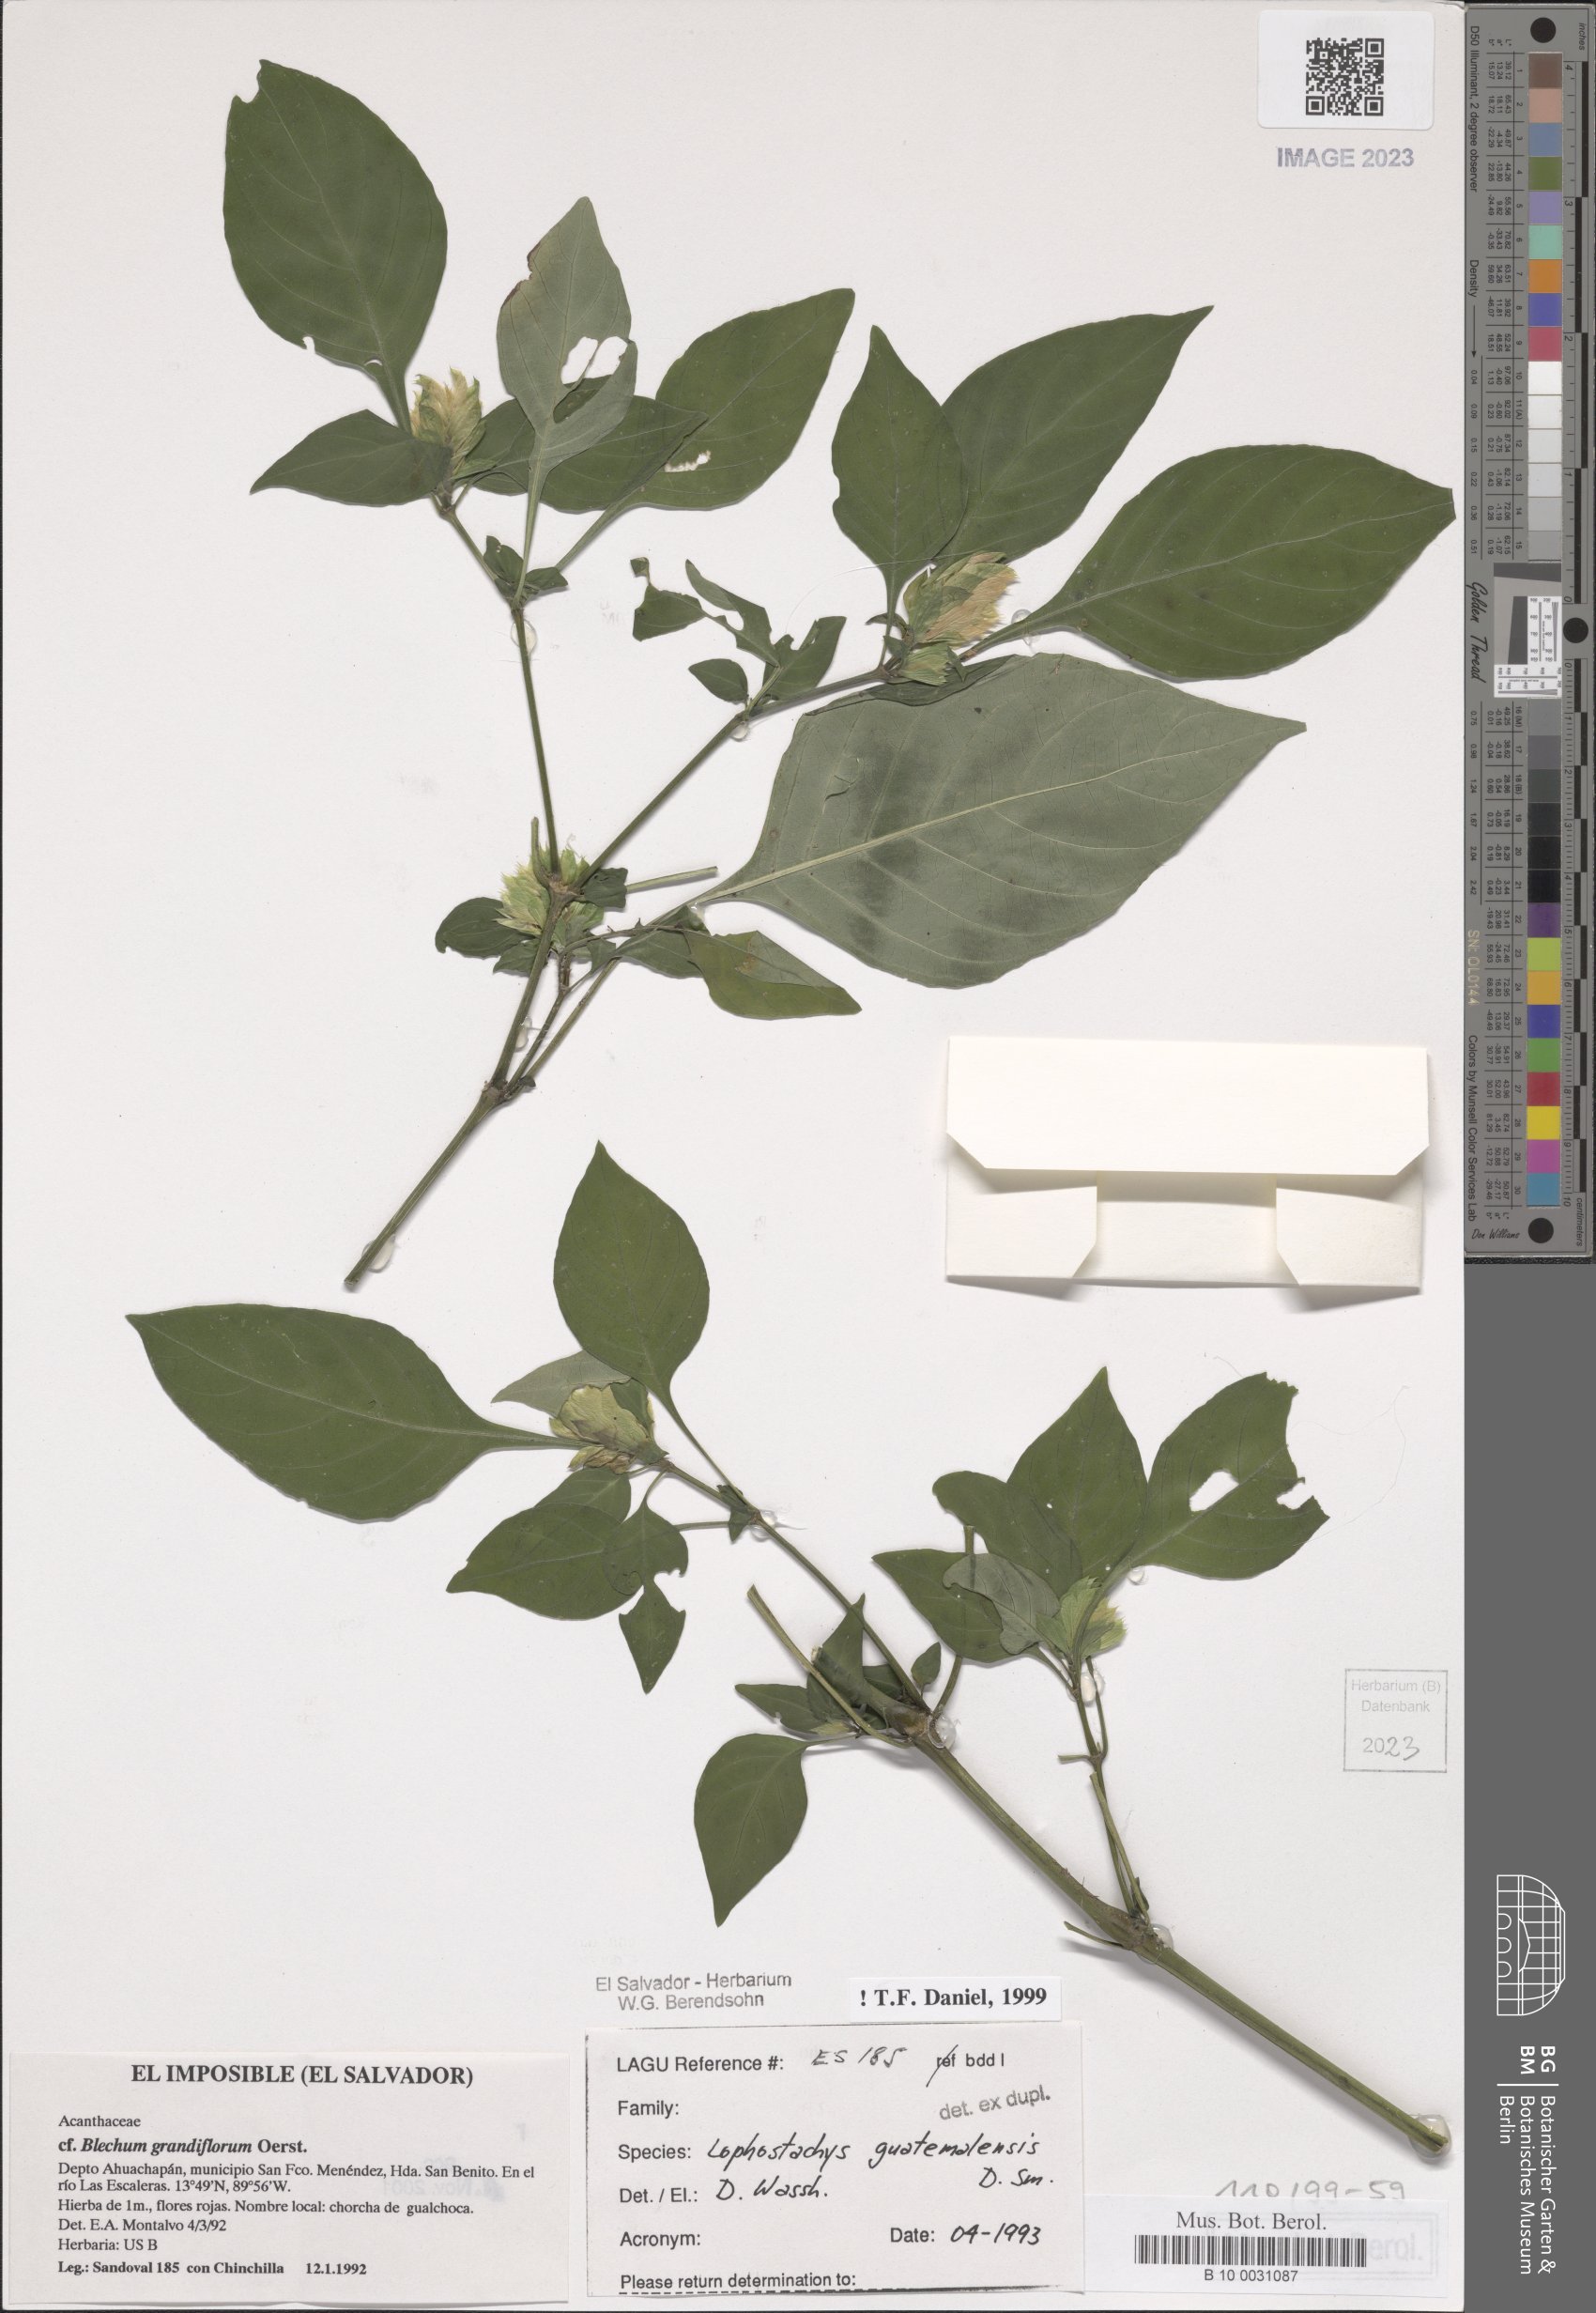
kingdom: Plantae
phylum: Tracheophyta
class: Magnoliopsida
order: Lamiales
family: Acanthaceae
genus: Lepidagathis
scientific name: Lepidagathis guatemalensis
